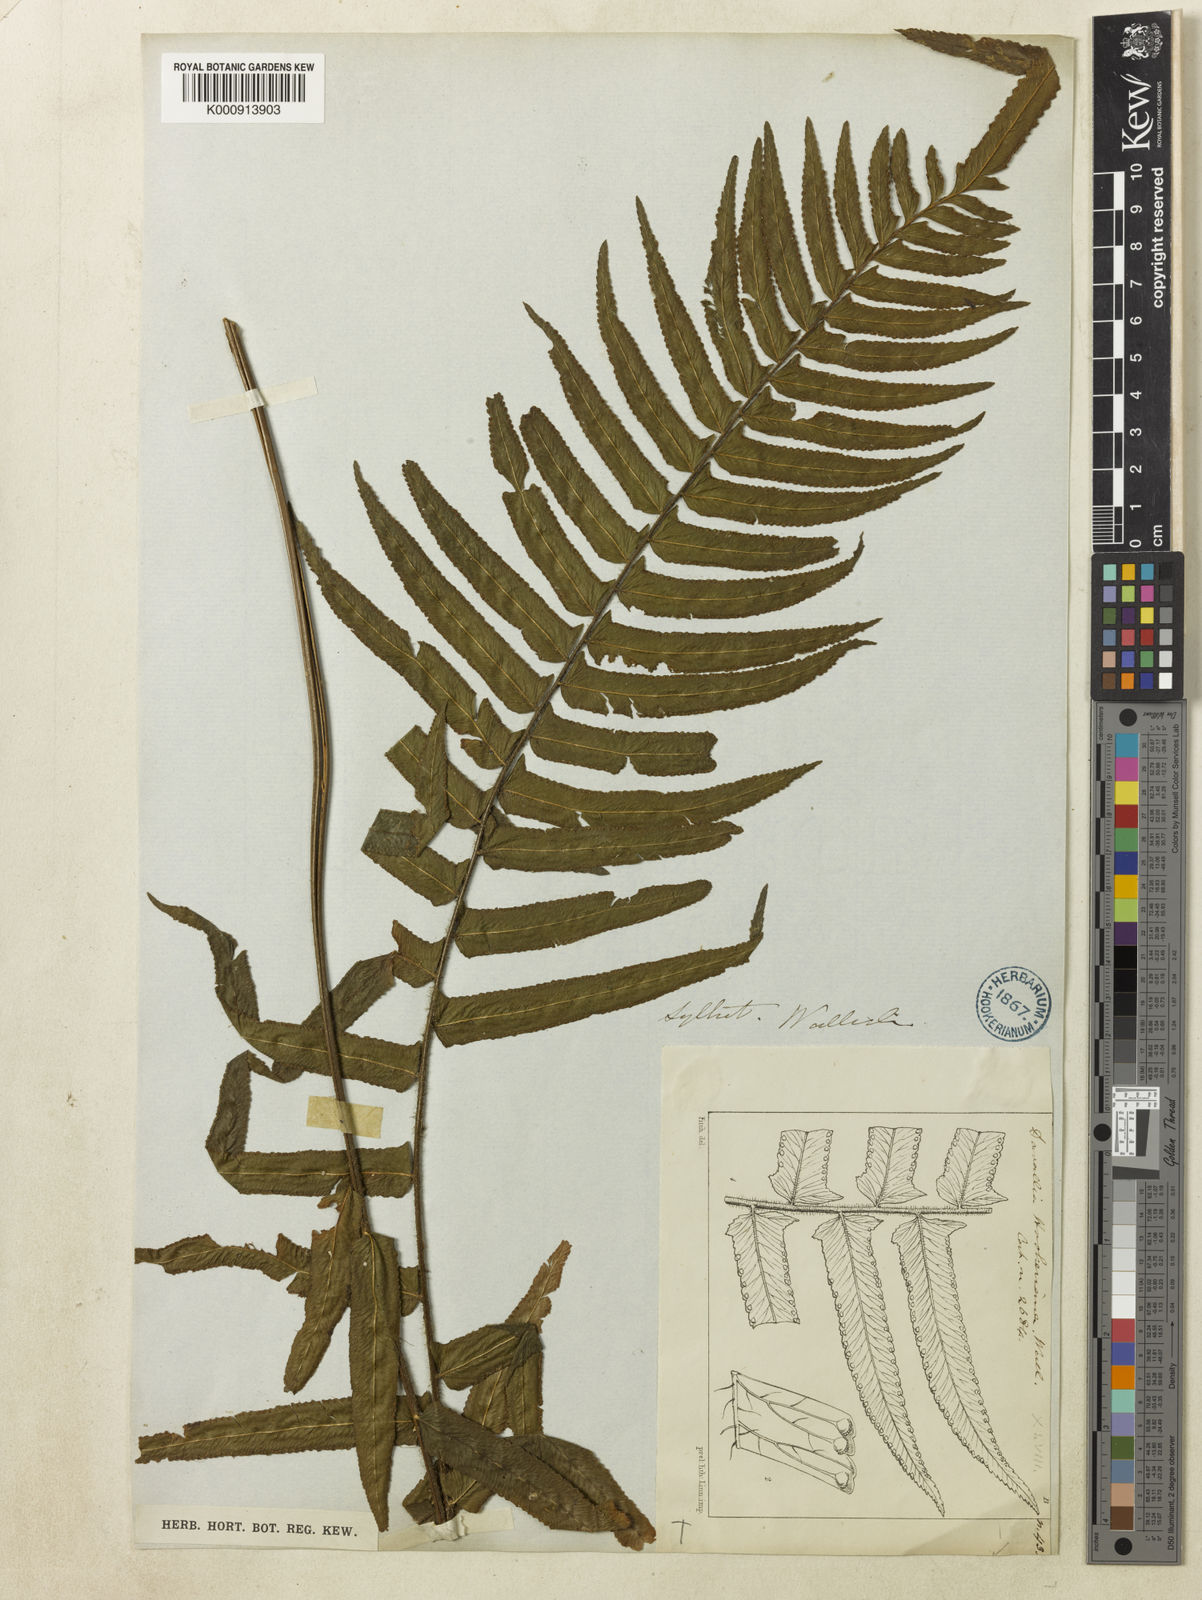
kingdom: Plantae
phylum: Tracheophyta
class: Polypodiopsida
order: Polypodiales
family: Dennstaedtiaceae
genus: Microlepia
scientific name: Microlepia hookeriana
